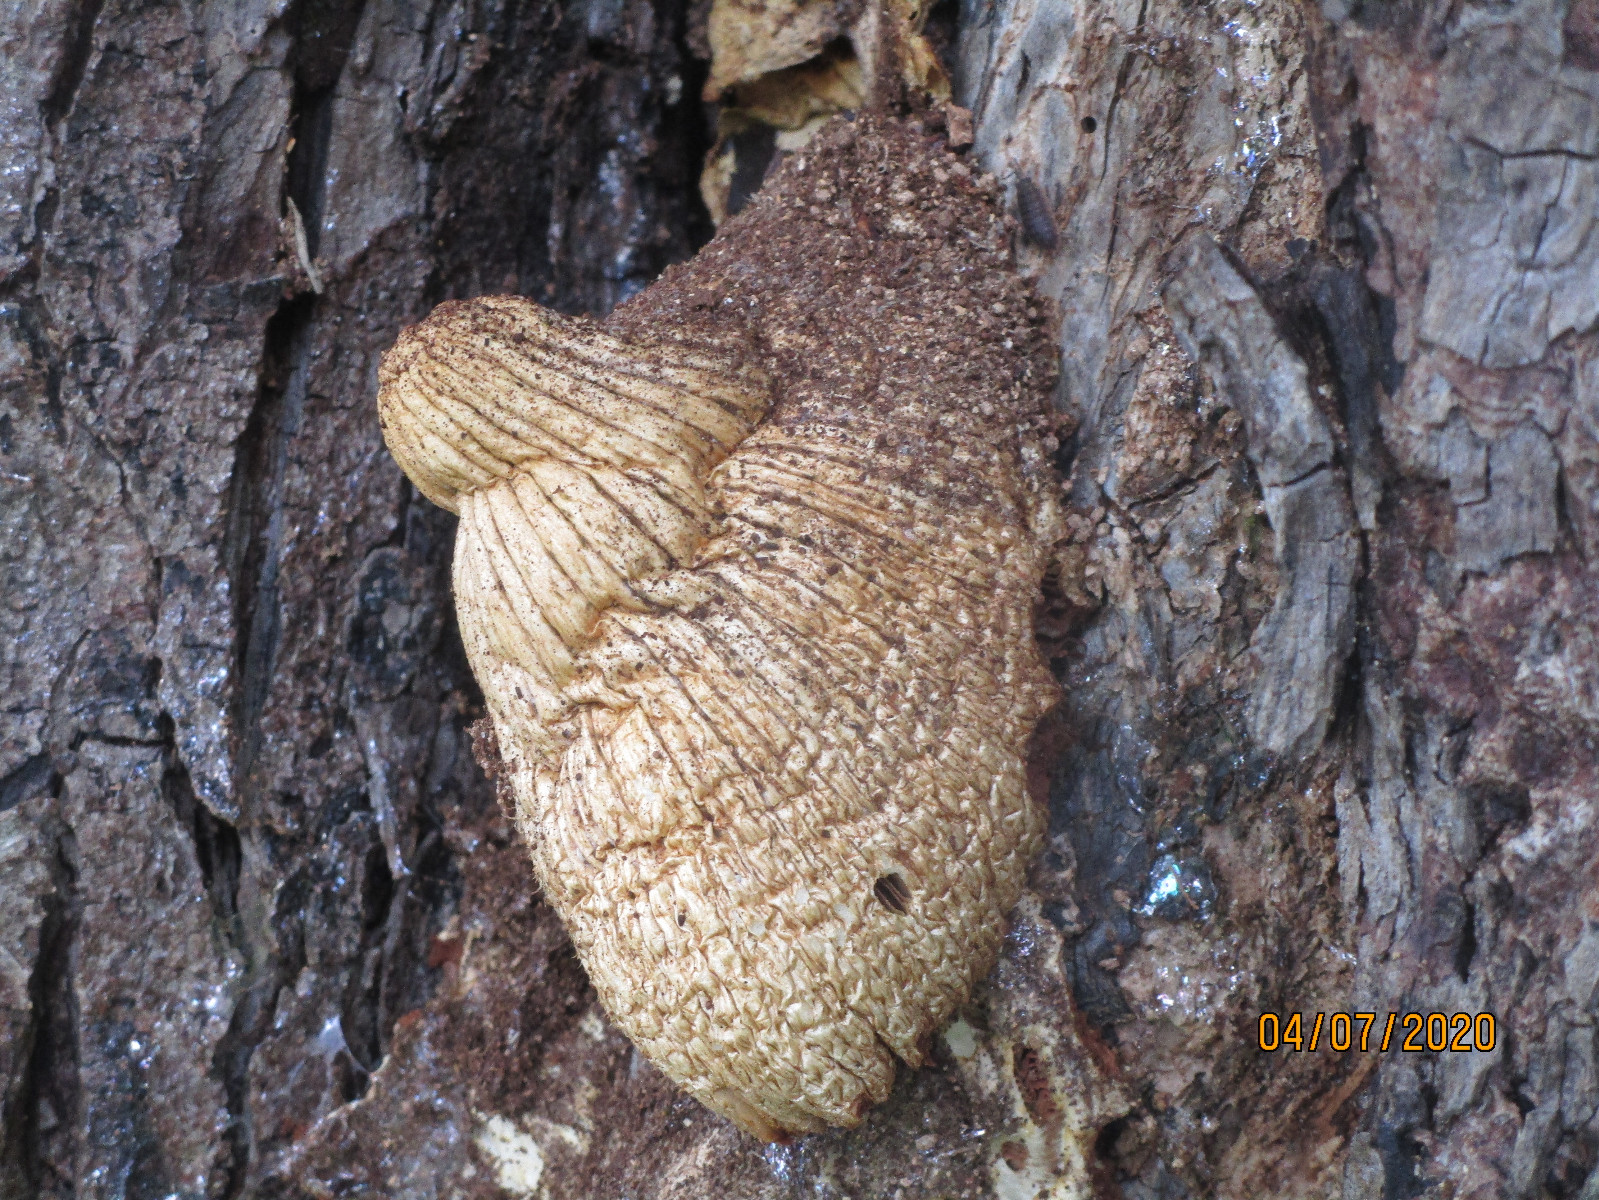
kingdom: Fungi
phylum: Basidiomycota
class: Agaricomycetes
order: Agaricales
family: Pluteaceae
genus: Volvariella
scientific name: Volvariella bombycina
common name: silkehåret posesvamp
